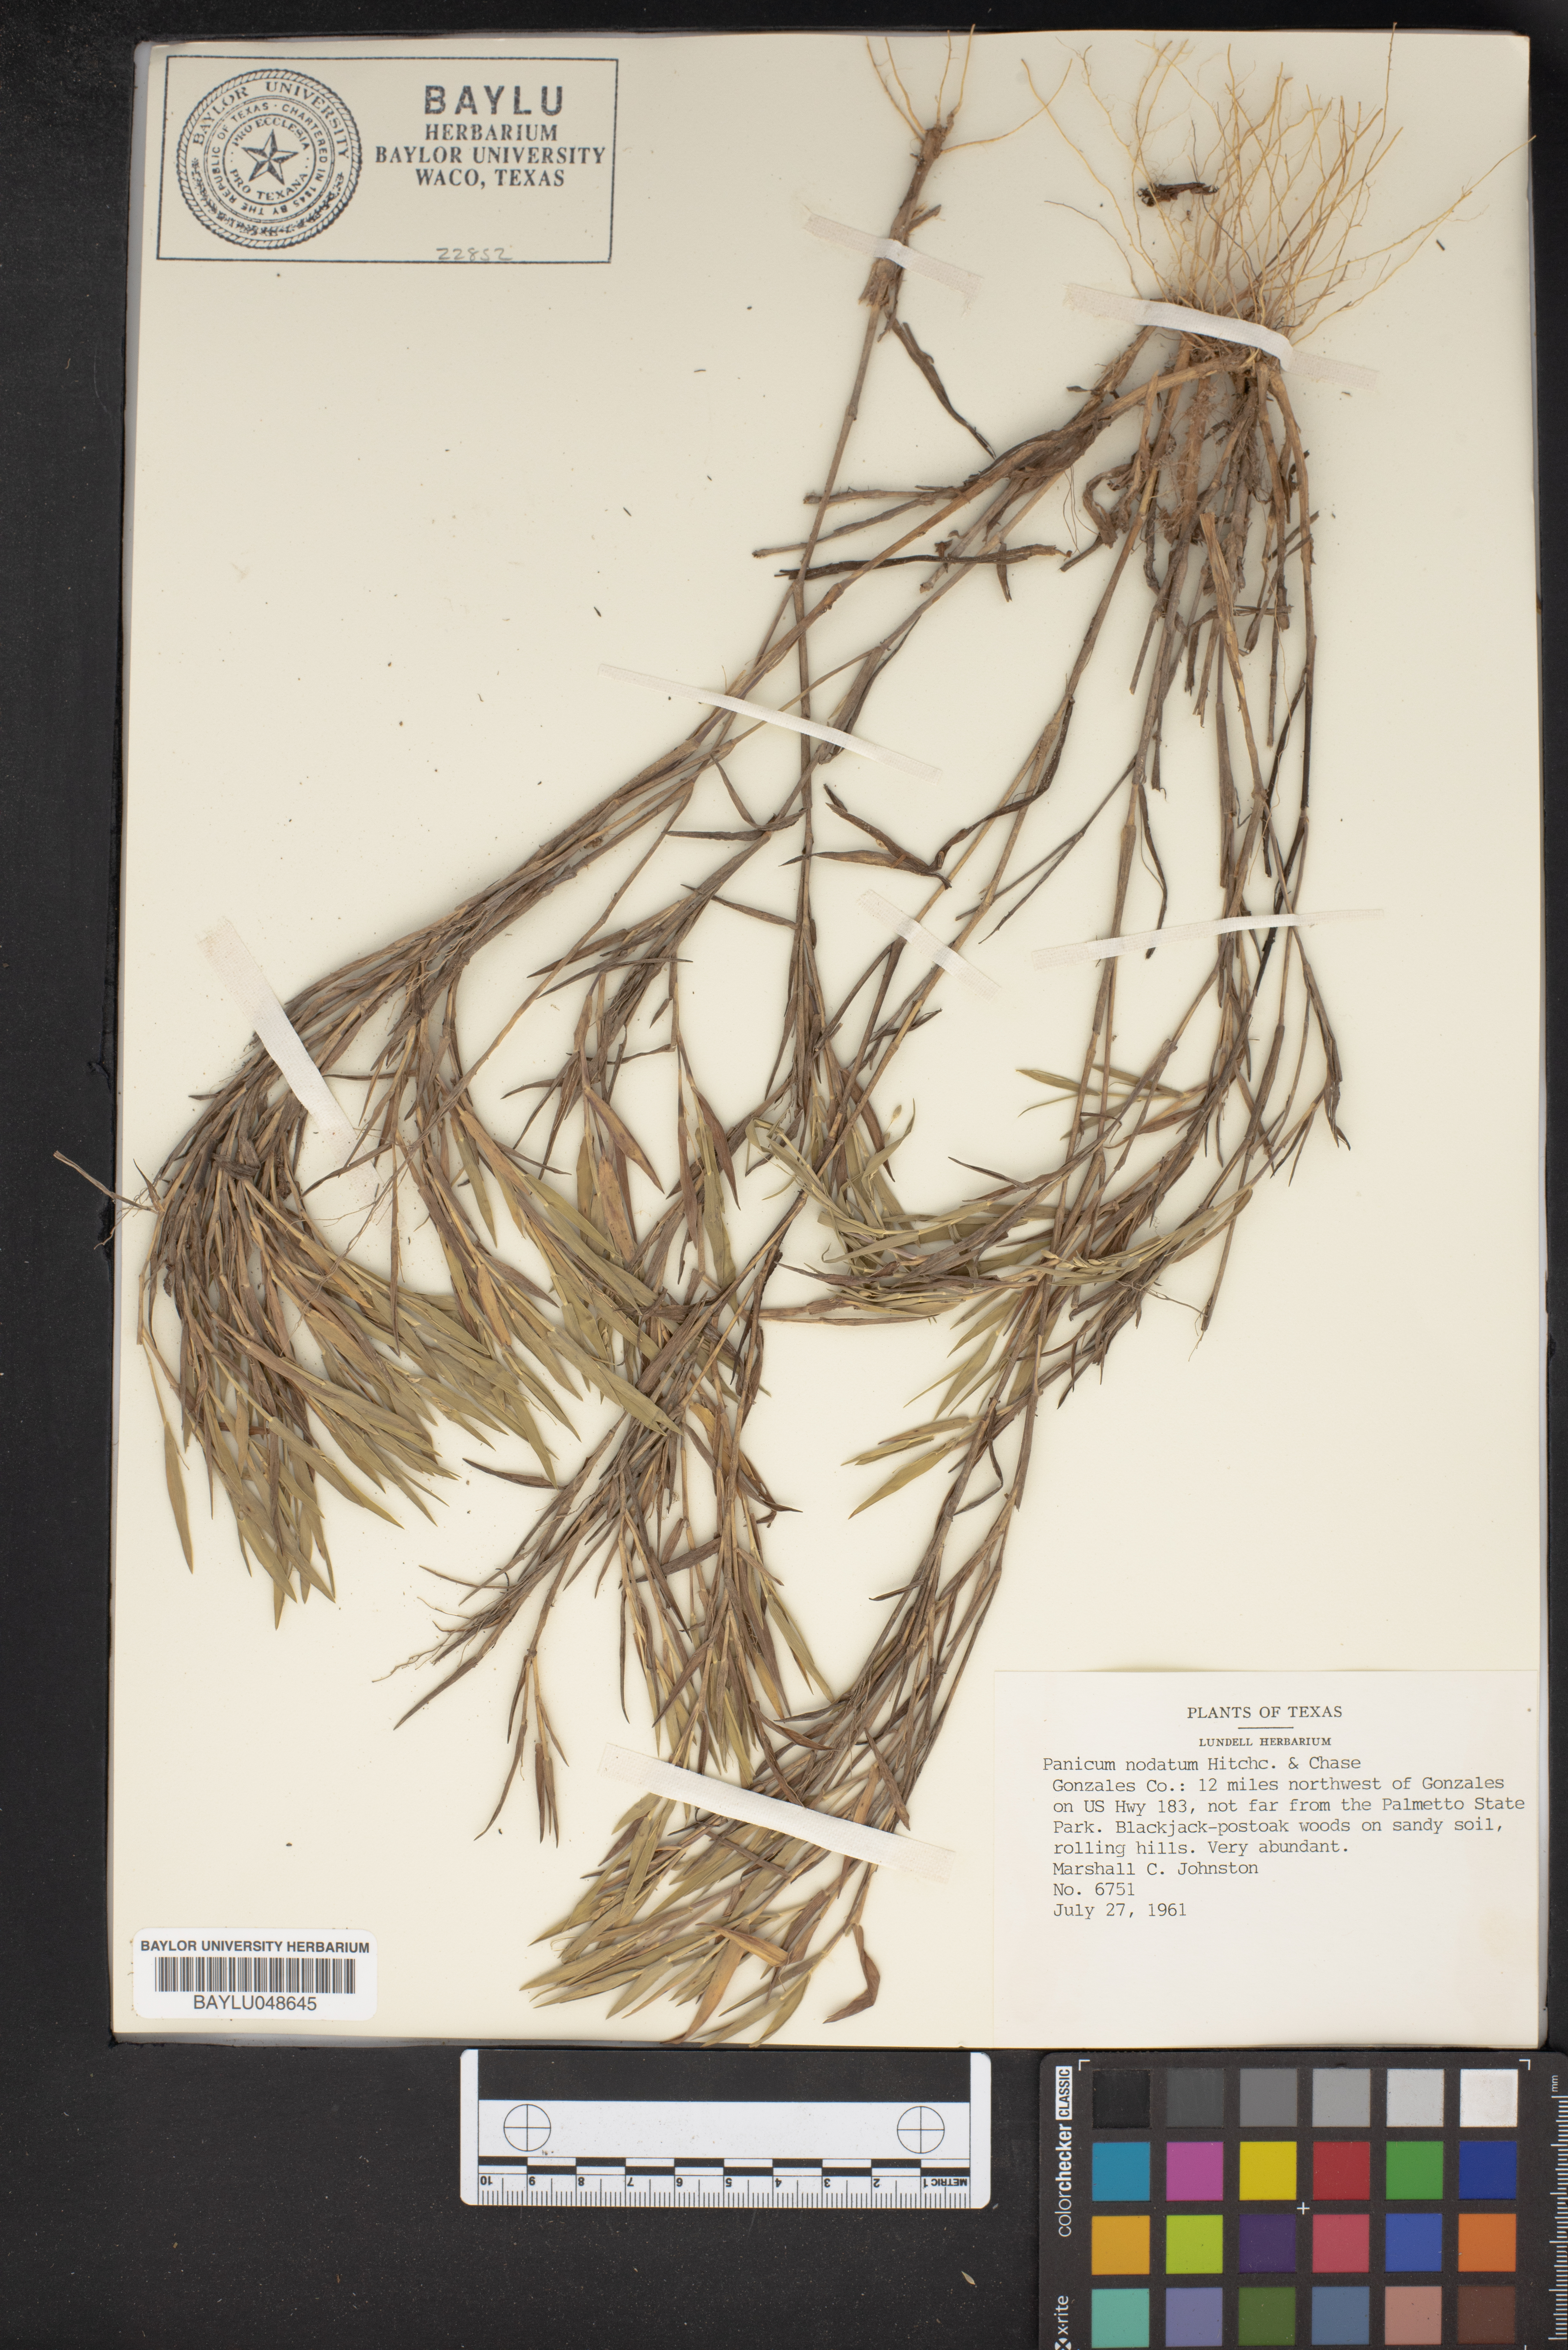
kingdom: Plantae
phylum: Tracheophyta
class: Liliopsida
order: Poales
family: Poaceae
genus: Dichanthelium
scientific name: Dichanthelium nodatum
